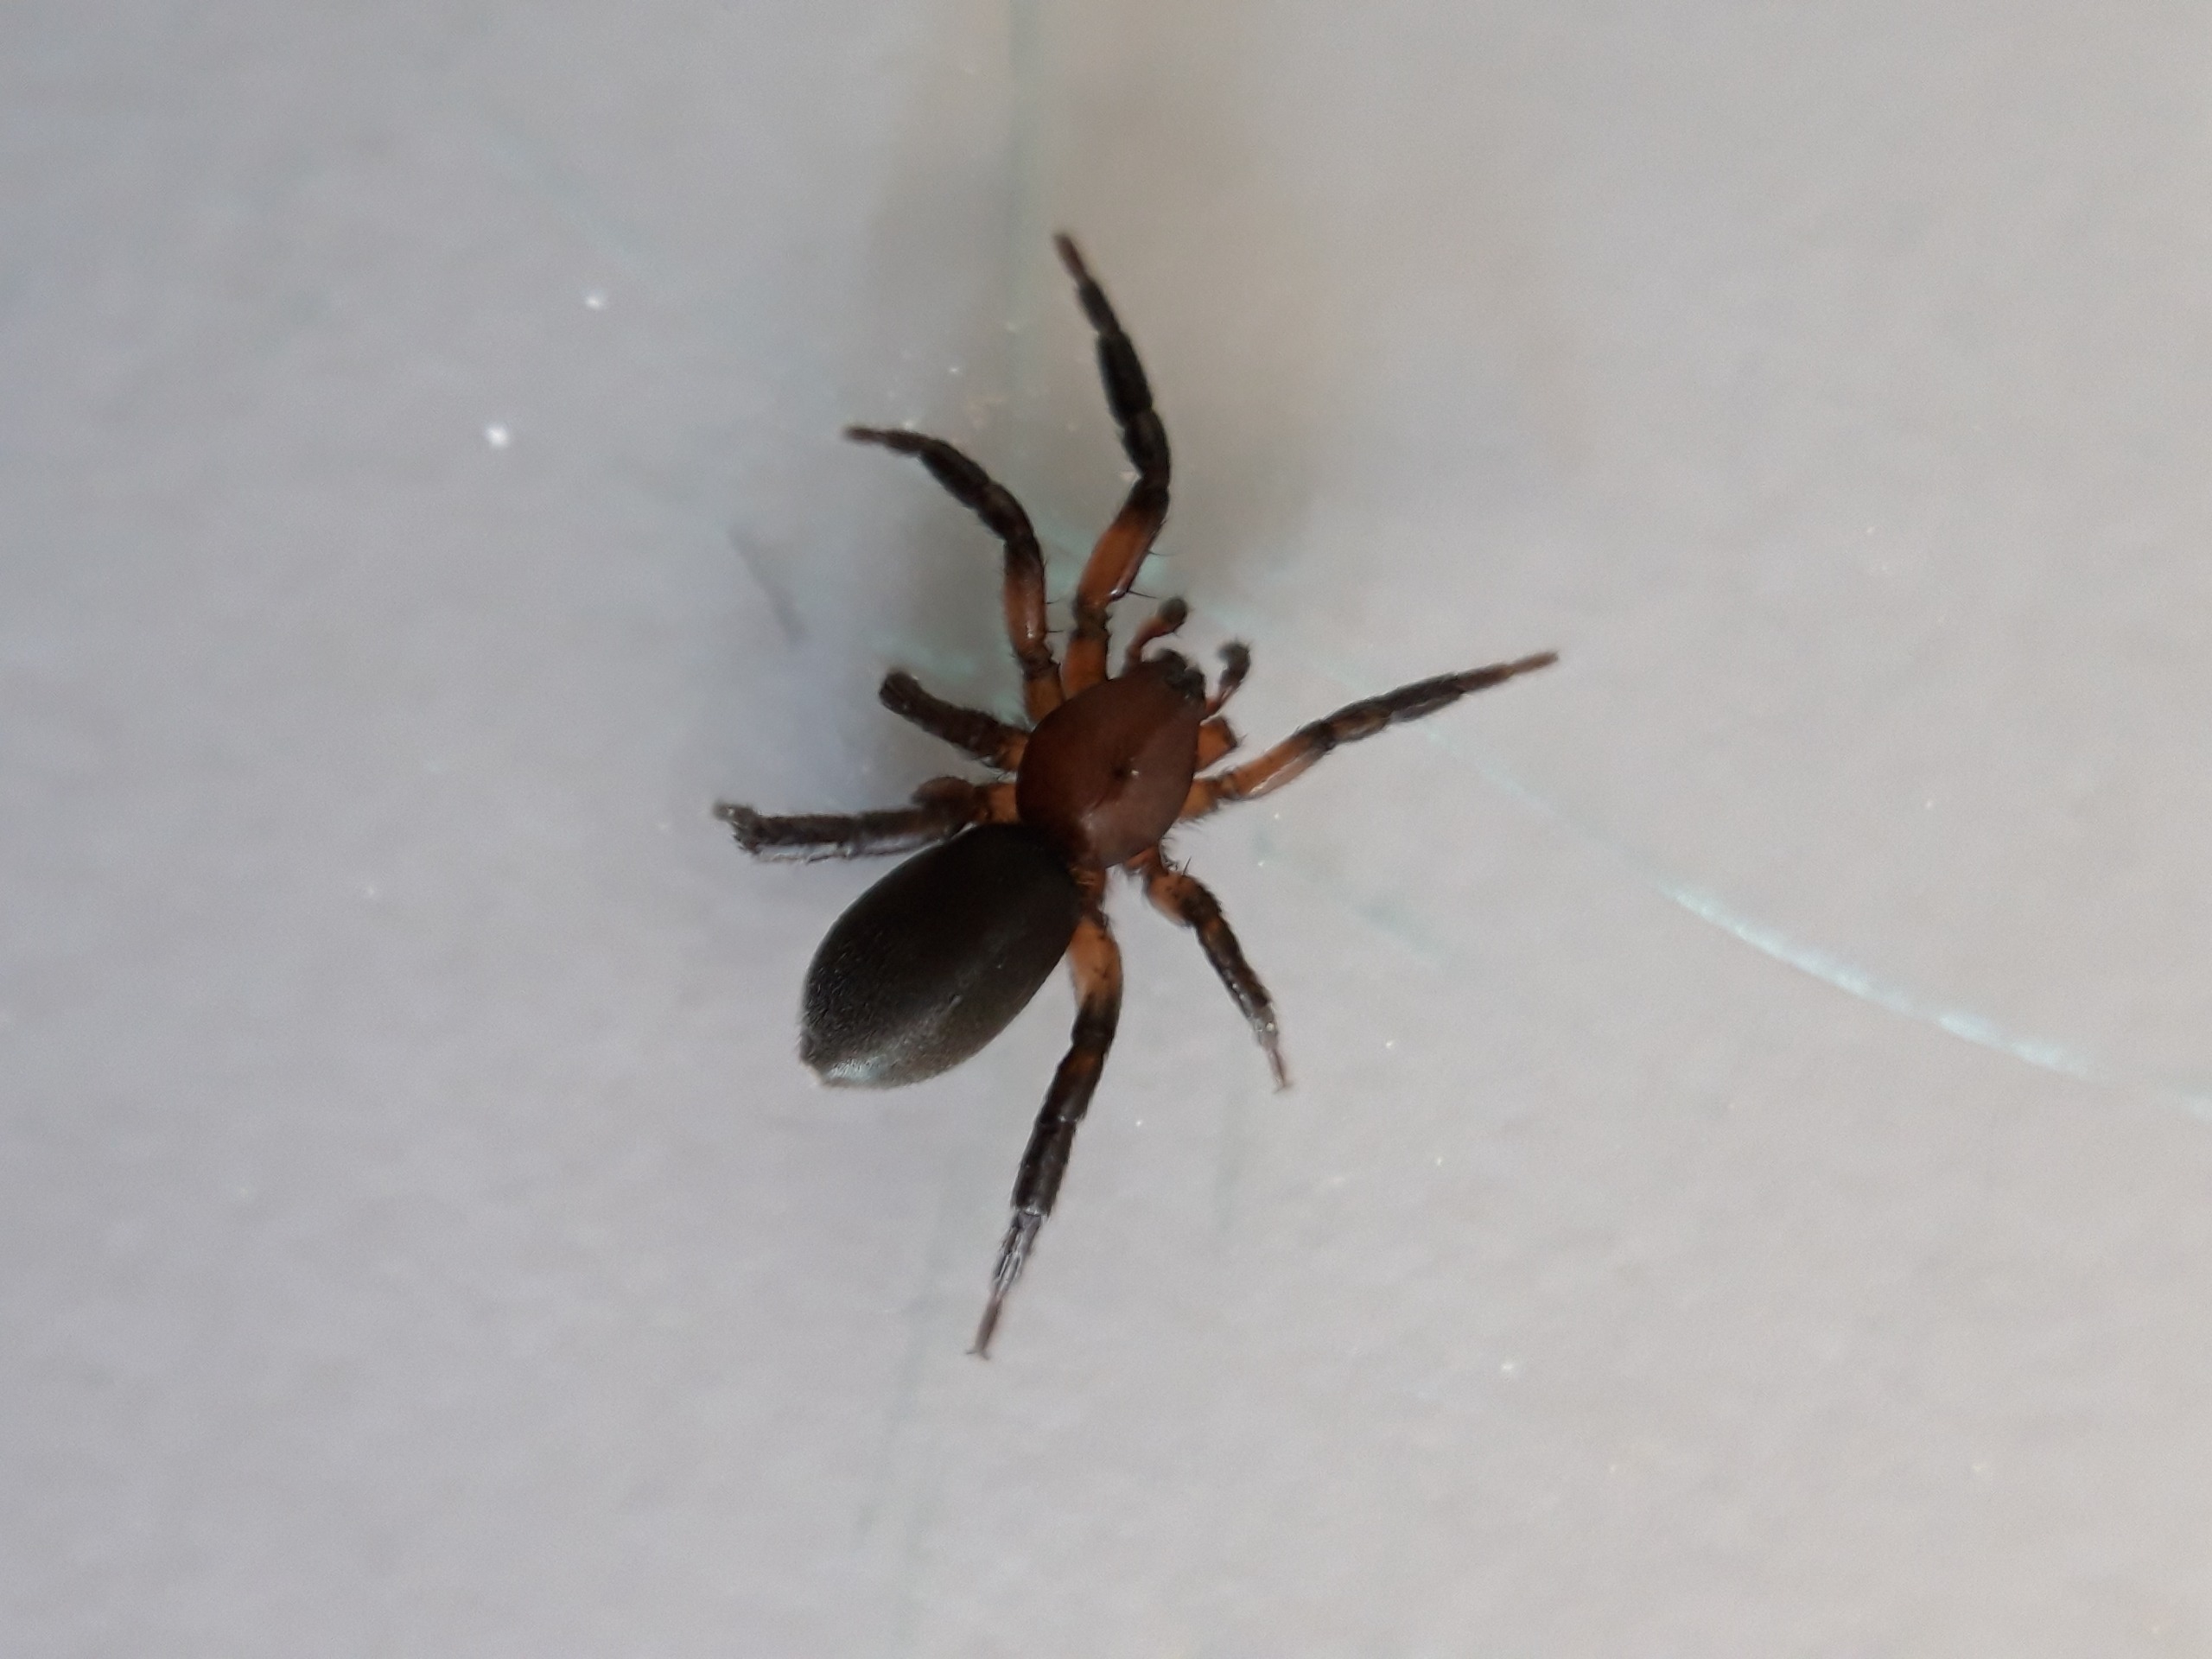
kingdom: Animalia
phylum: Arthropoda
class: Arachnida
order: Araneae
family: Gnaphosidae
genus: Zelotes
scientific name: Zelotes electus
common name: Rød ninja
